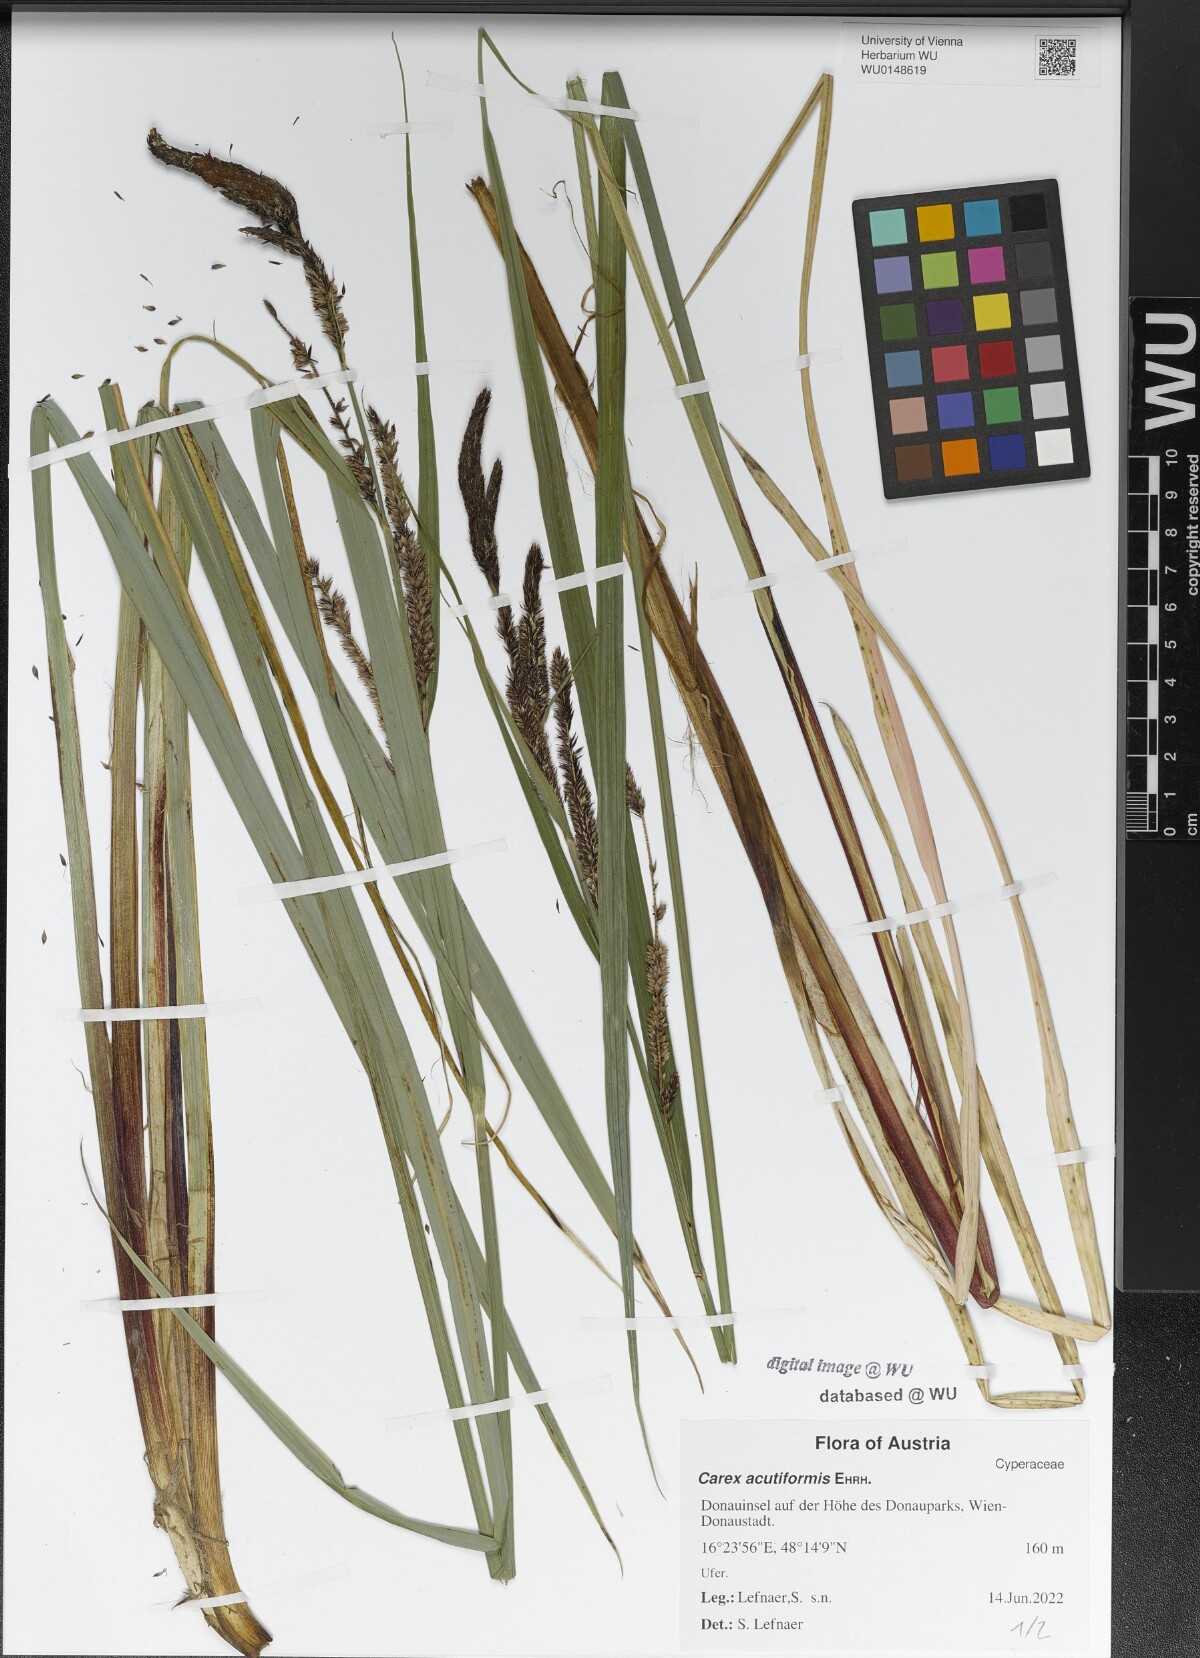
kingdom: Plantae
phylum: Tracheophyta
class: Liliopsida
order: Poales
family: Cyperaceae
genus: Carex
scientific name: Carex acutiformis
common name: Lesser pond-sedge
